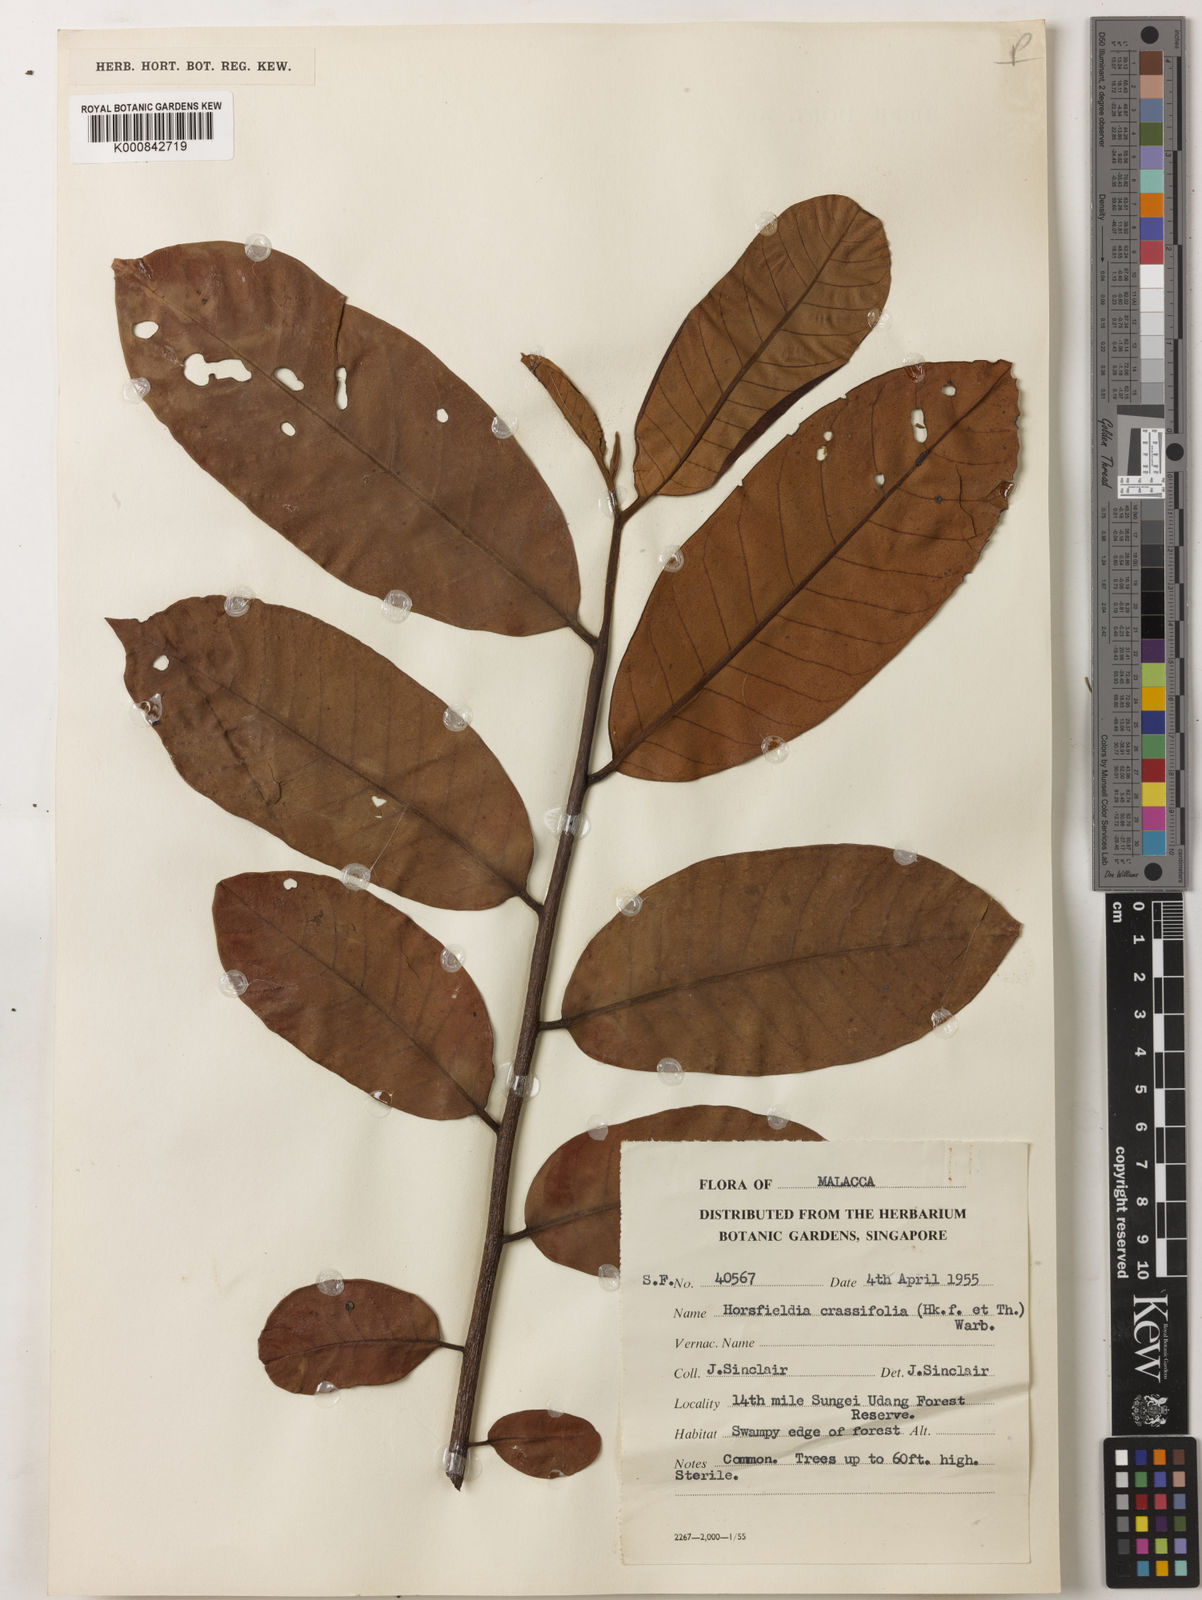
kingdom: Plantae
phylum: Tracheophyta
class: Magnoliopsida
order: Magnoliales
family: Myristicaceae
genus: Horsfieldia
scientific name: Horsfieldia crassifolia
